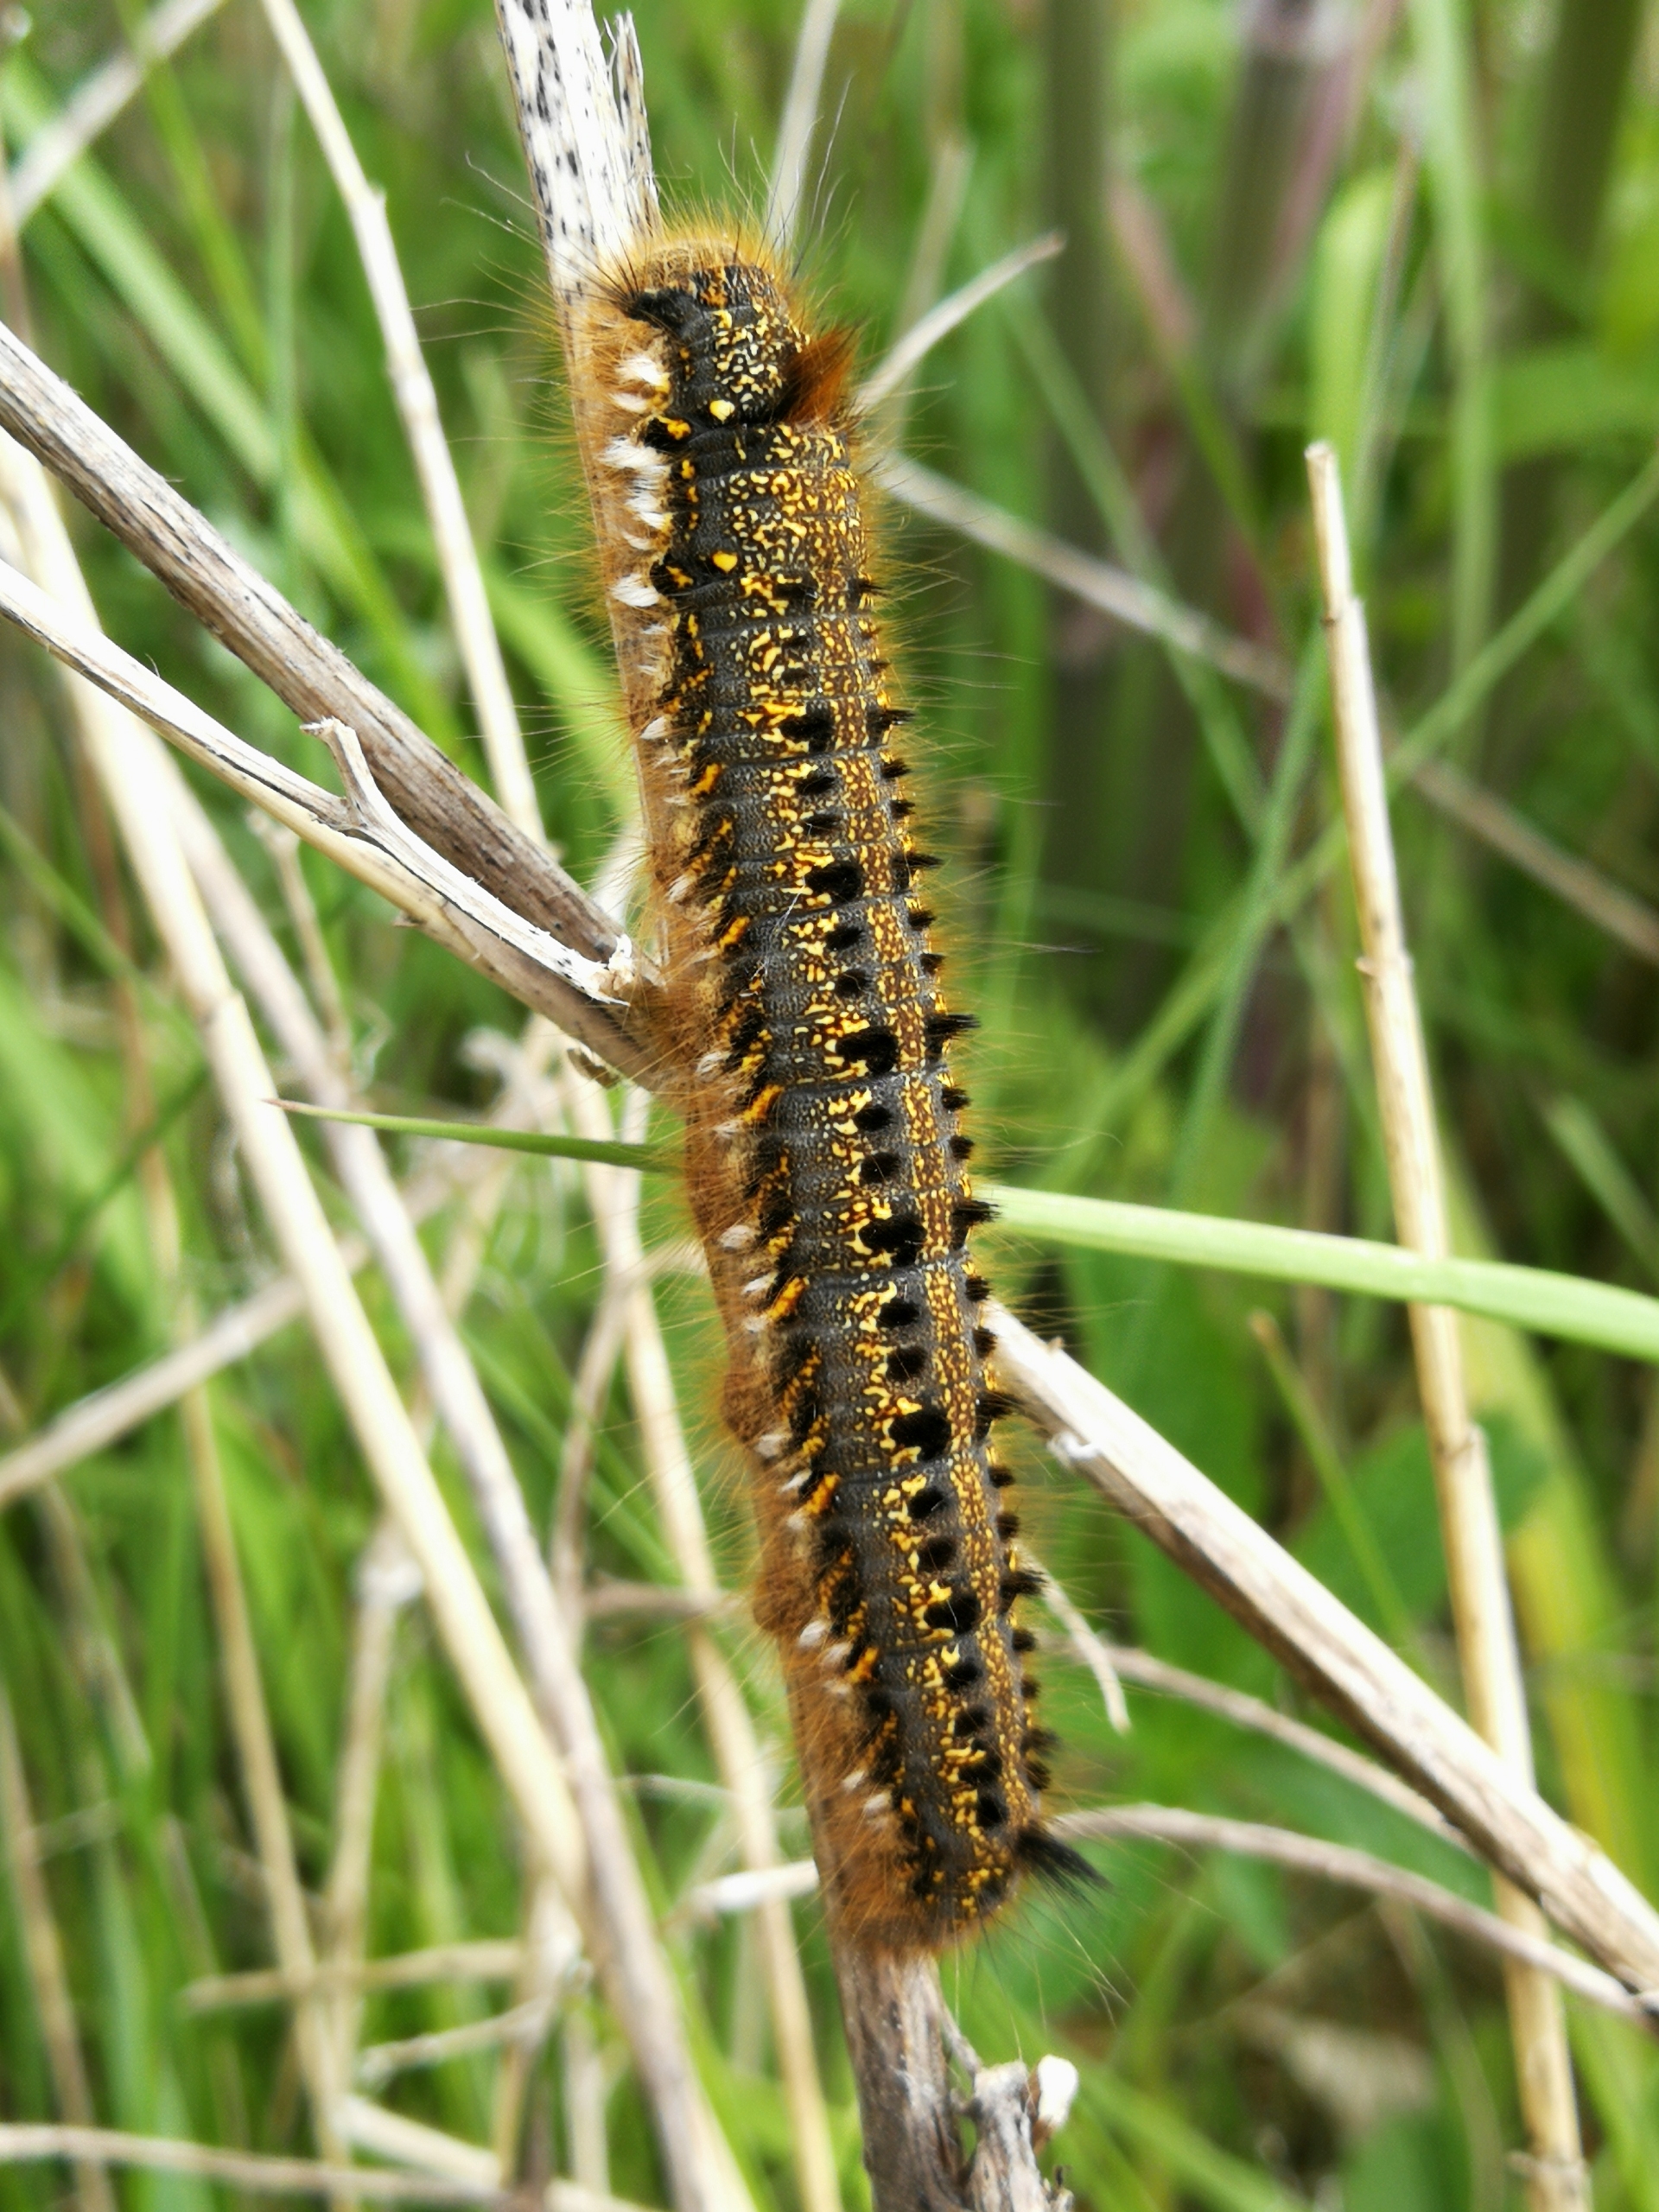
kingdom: Animalia
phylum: Arthropoda
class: Insecta
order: Lepidoptera
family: Lasiocampidae
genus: Euthrix
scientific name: Euthrix potatoria
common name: Græsspinder
